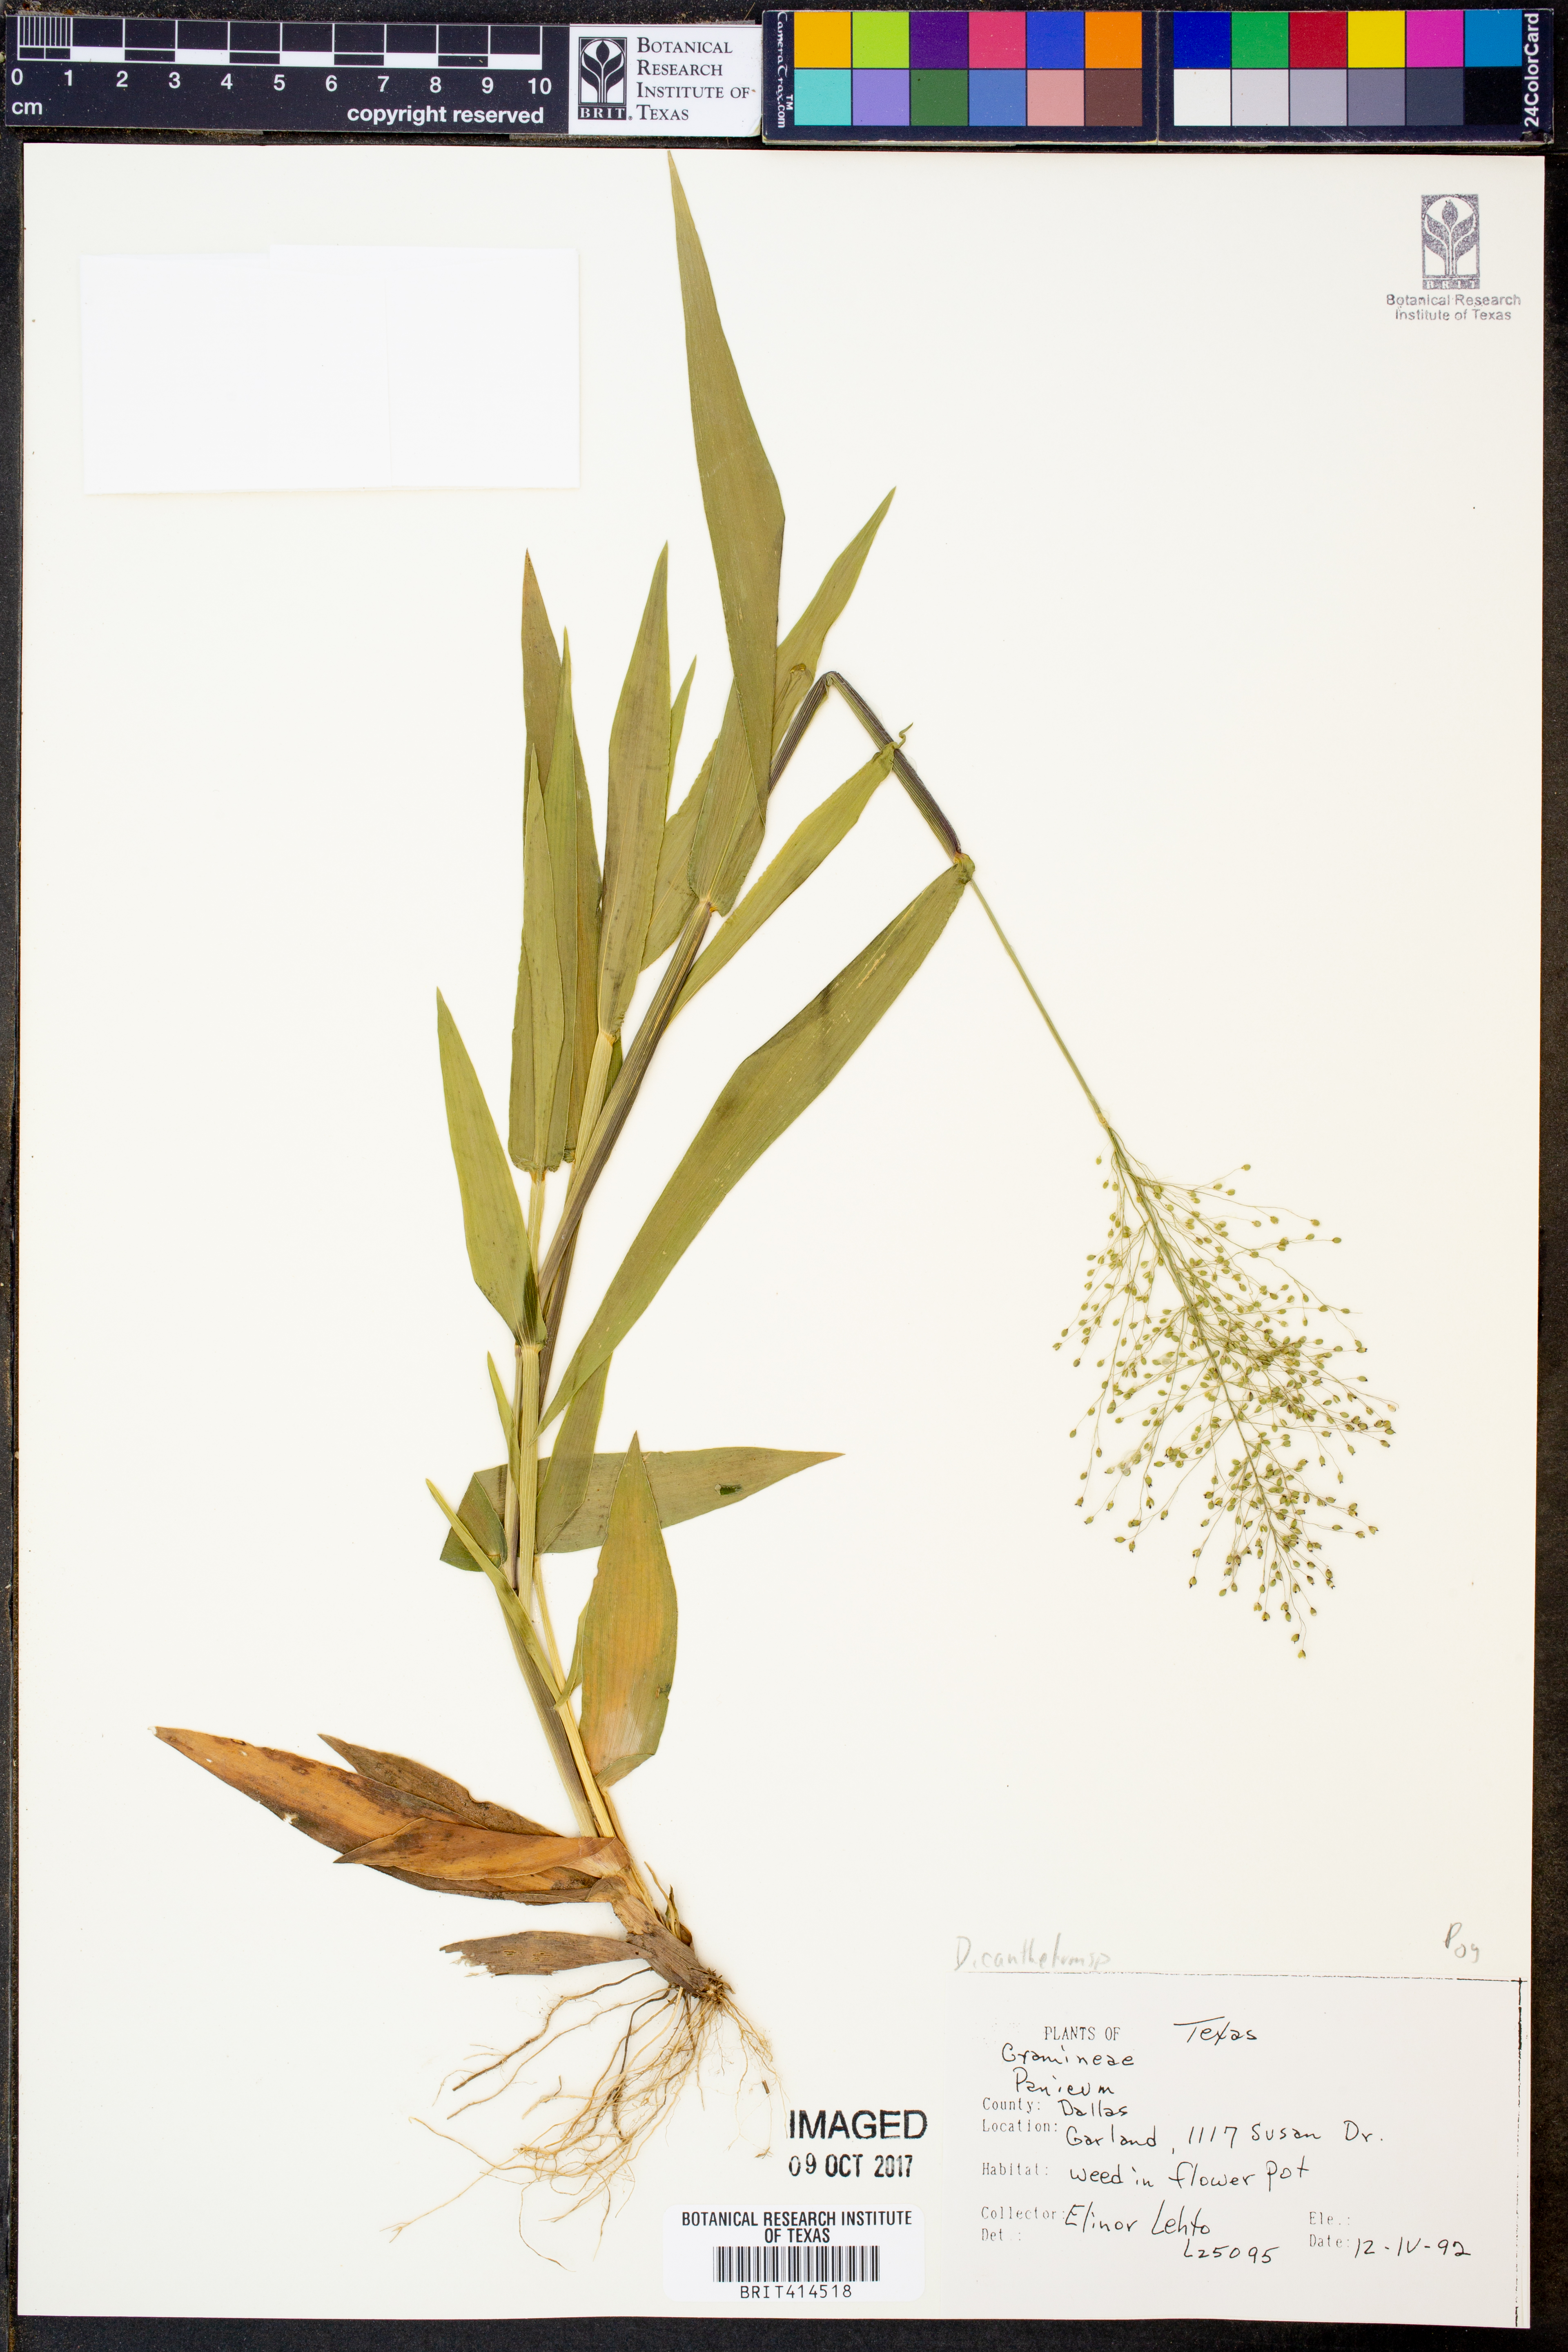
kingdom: Plantae
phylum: Tracheophyta
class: Liliopsida
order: Poales
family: Poaceae
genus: Panicum
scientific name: Panicum
